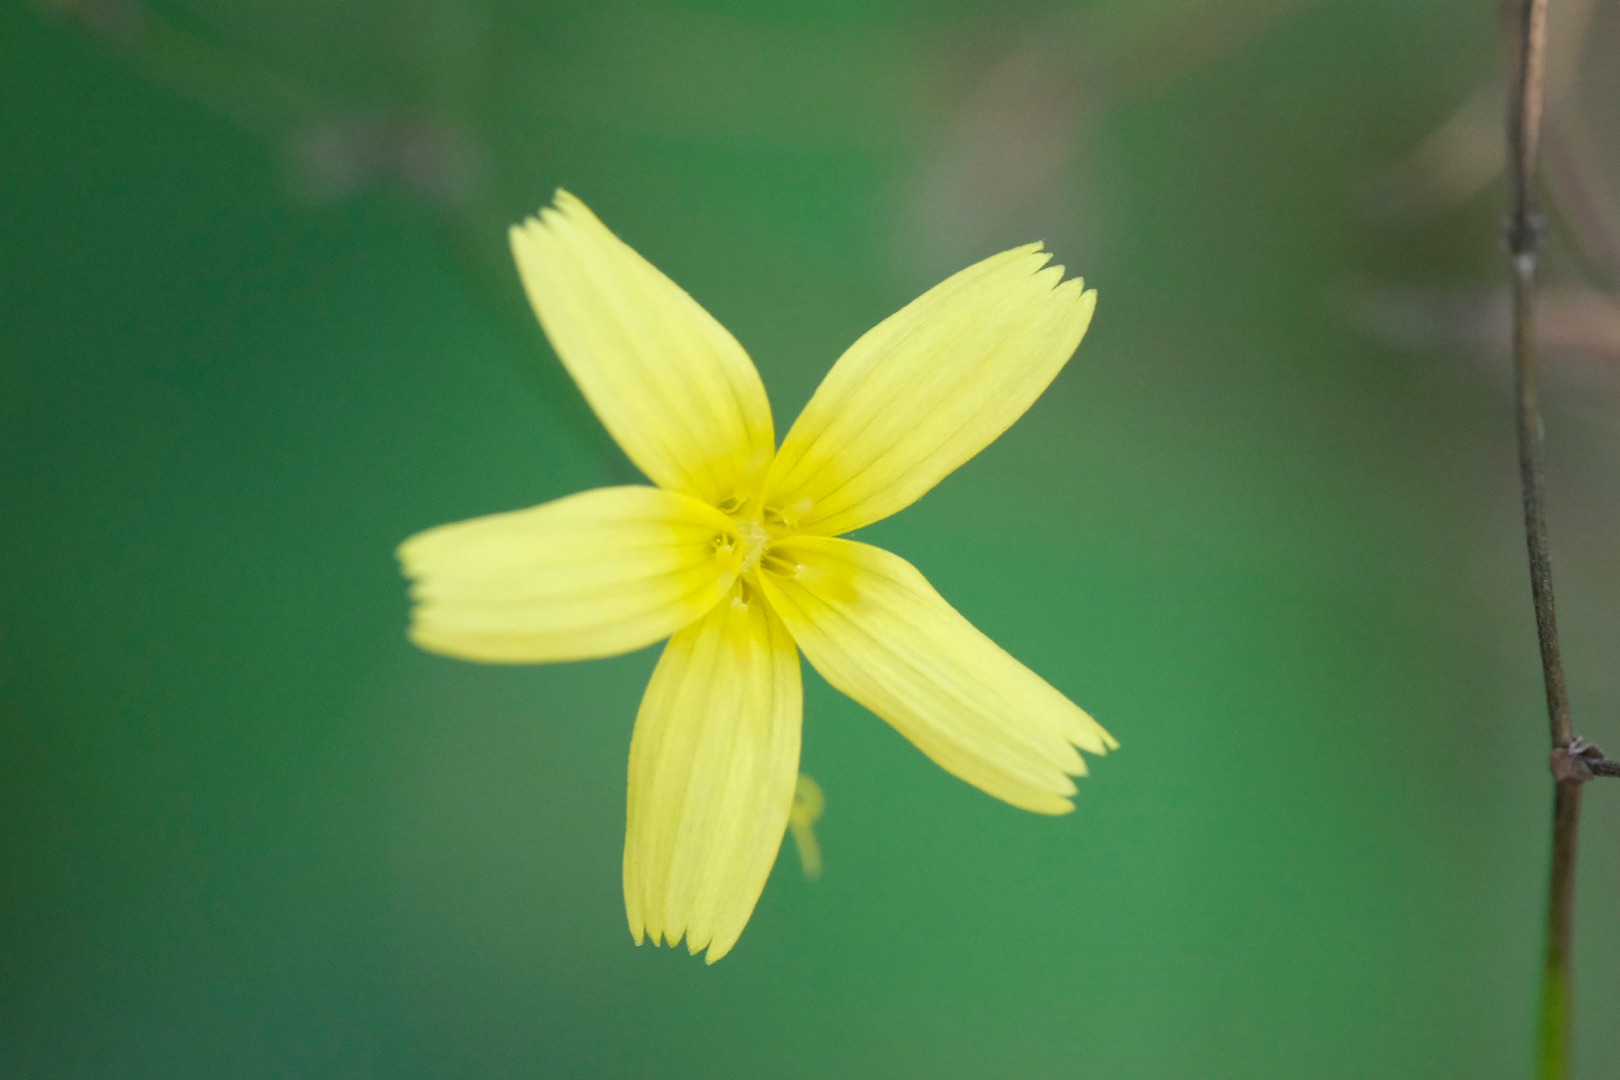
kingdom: Plantae
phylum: Tracheophyta
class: Magnoliopsida
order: Asterales
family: Asteraceae
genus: Mycelis
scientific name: Mycelis muralis
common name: Skov-salat
